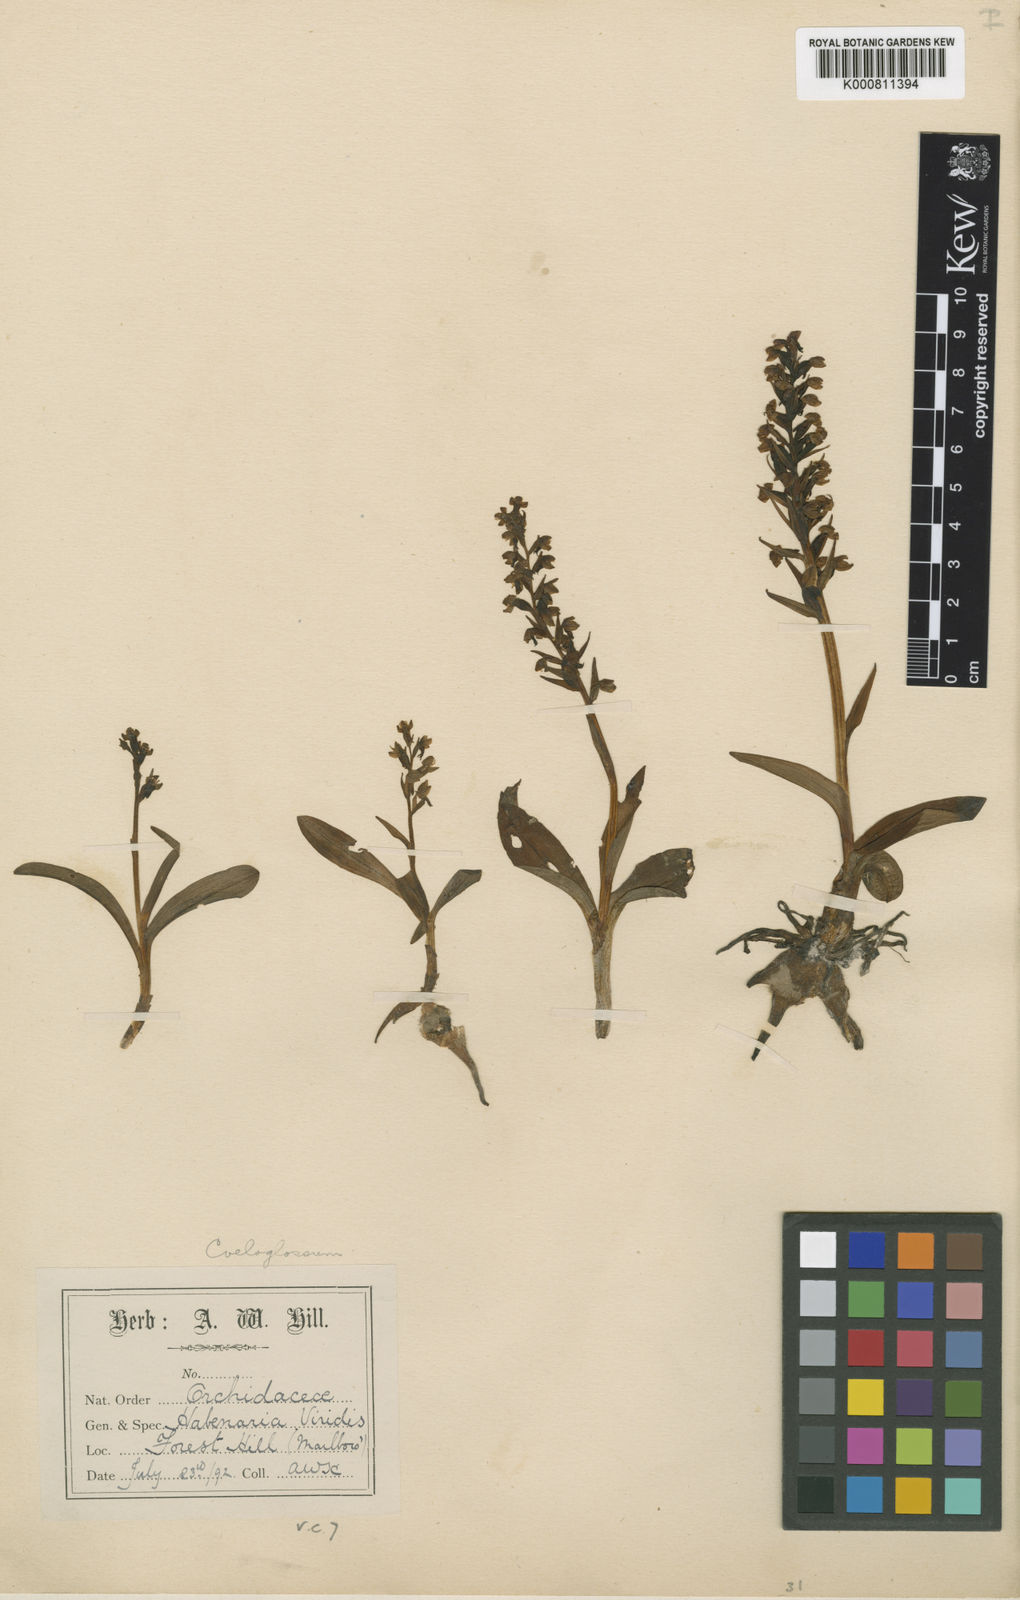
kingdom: Plantae
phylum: Tracheophyta
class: Liliopsida
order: Asparagales
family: Orchidaceae
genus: Dactylorhiza
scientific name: Dactylorhiza viridis
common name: Longbract frog orchid
